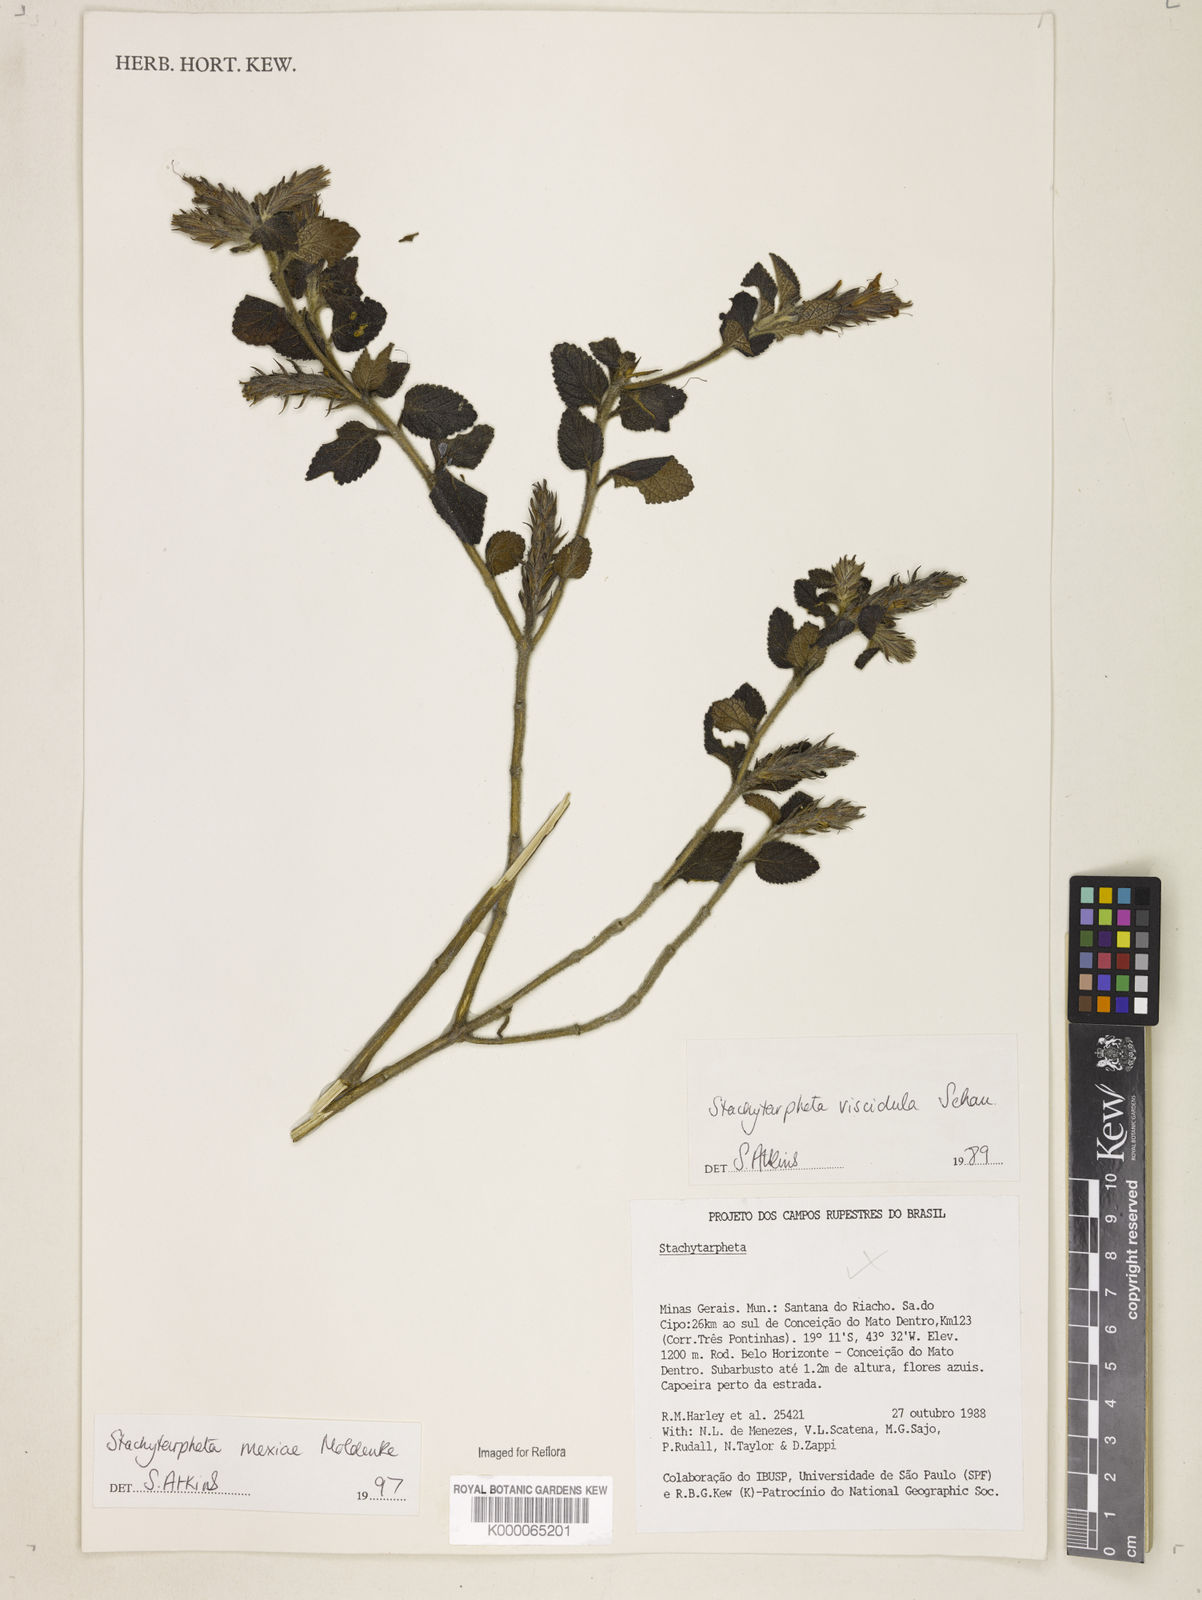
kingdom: Plantae
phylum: Tracheophyta
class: Magnoliopsida
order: Lamiales
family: Verbenaceae
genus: Stachytarpheta
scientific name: Stachytarpheta mexiae
